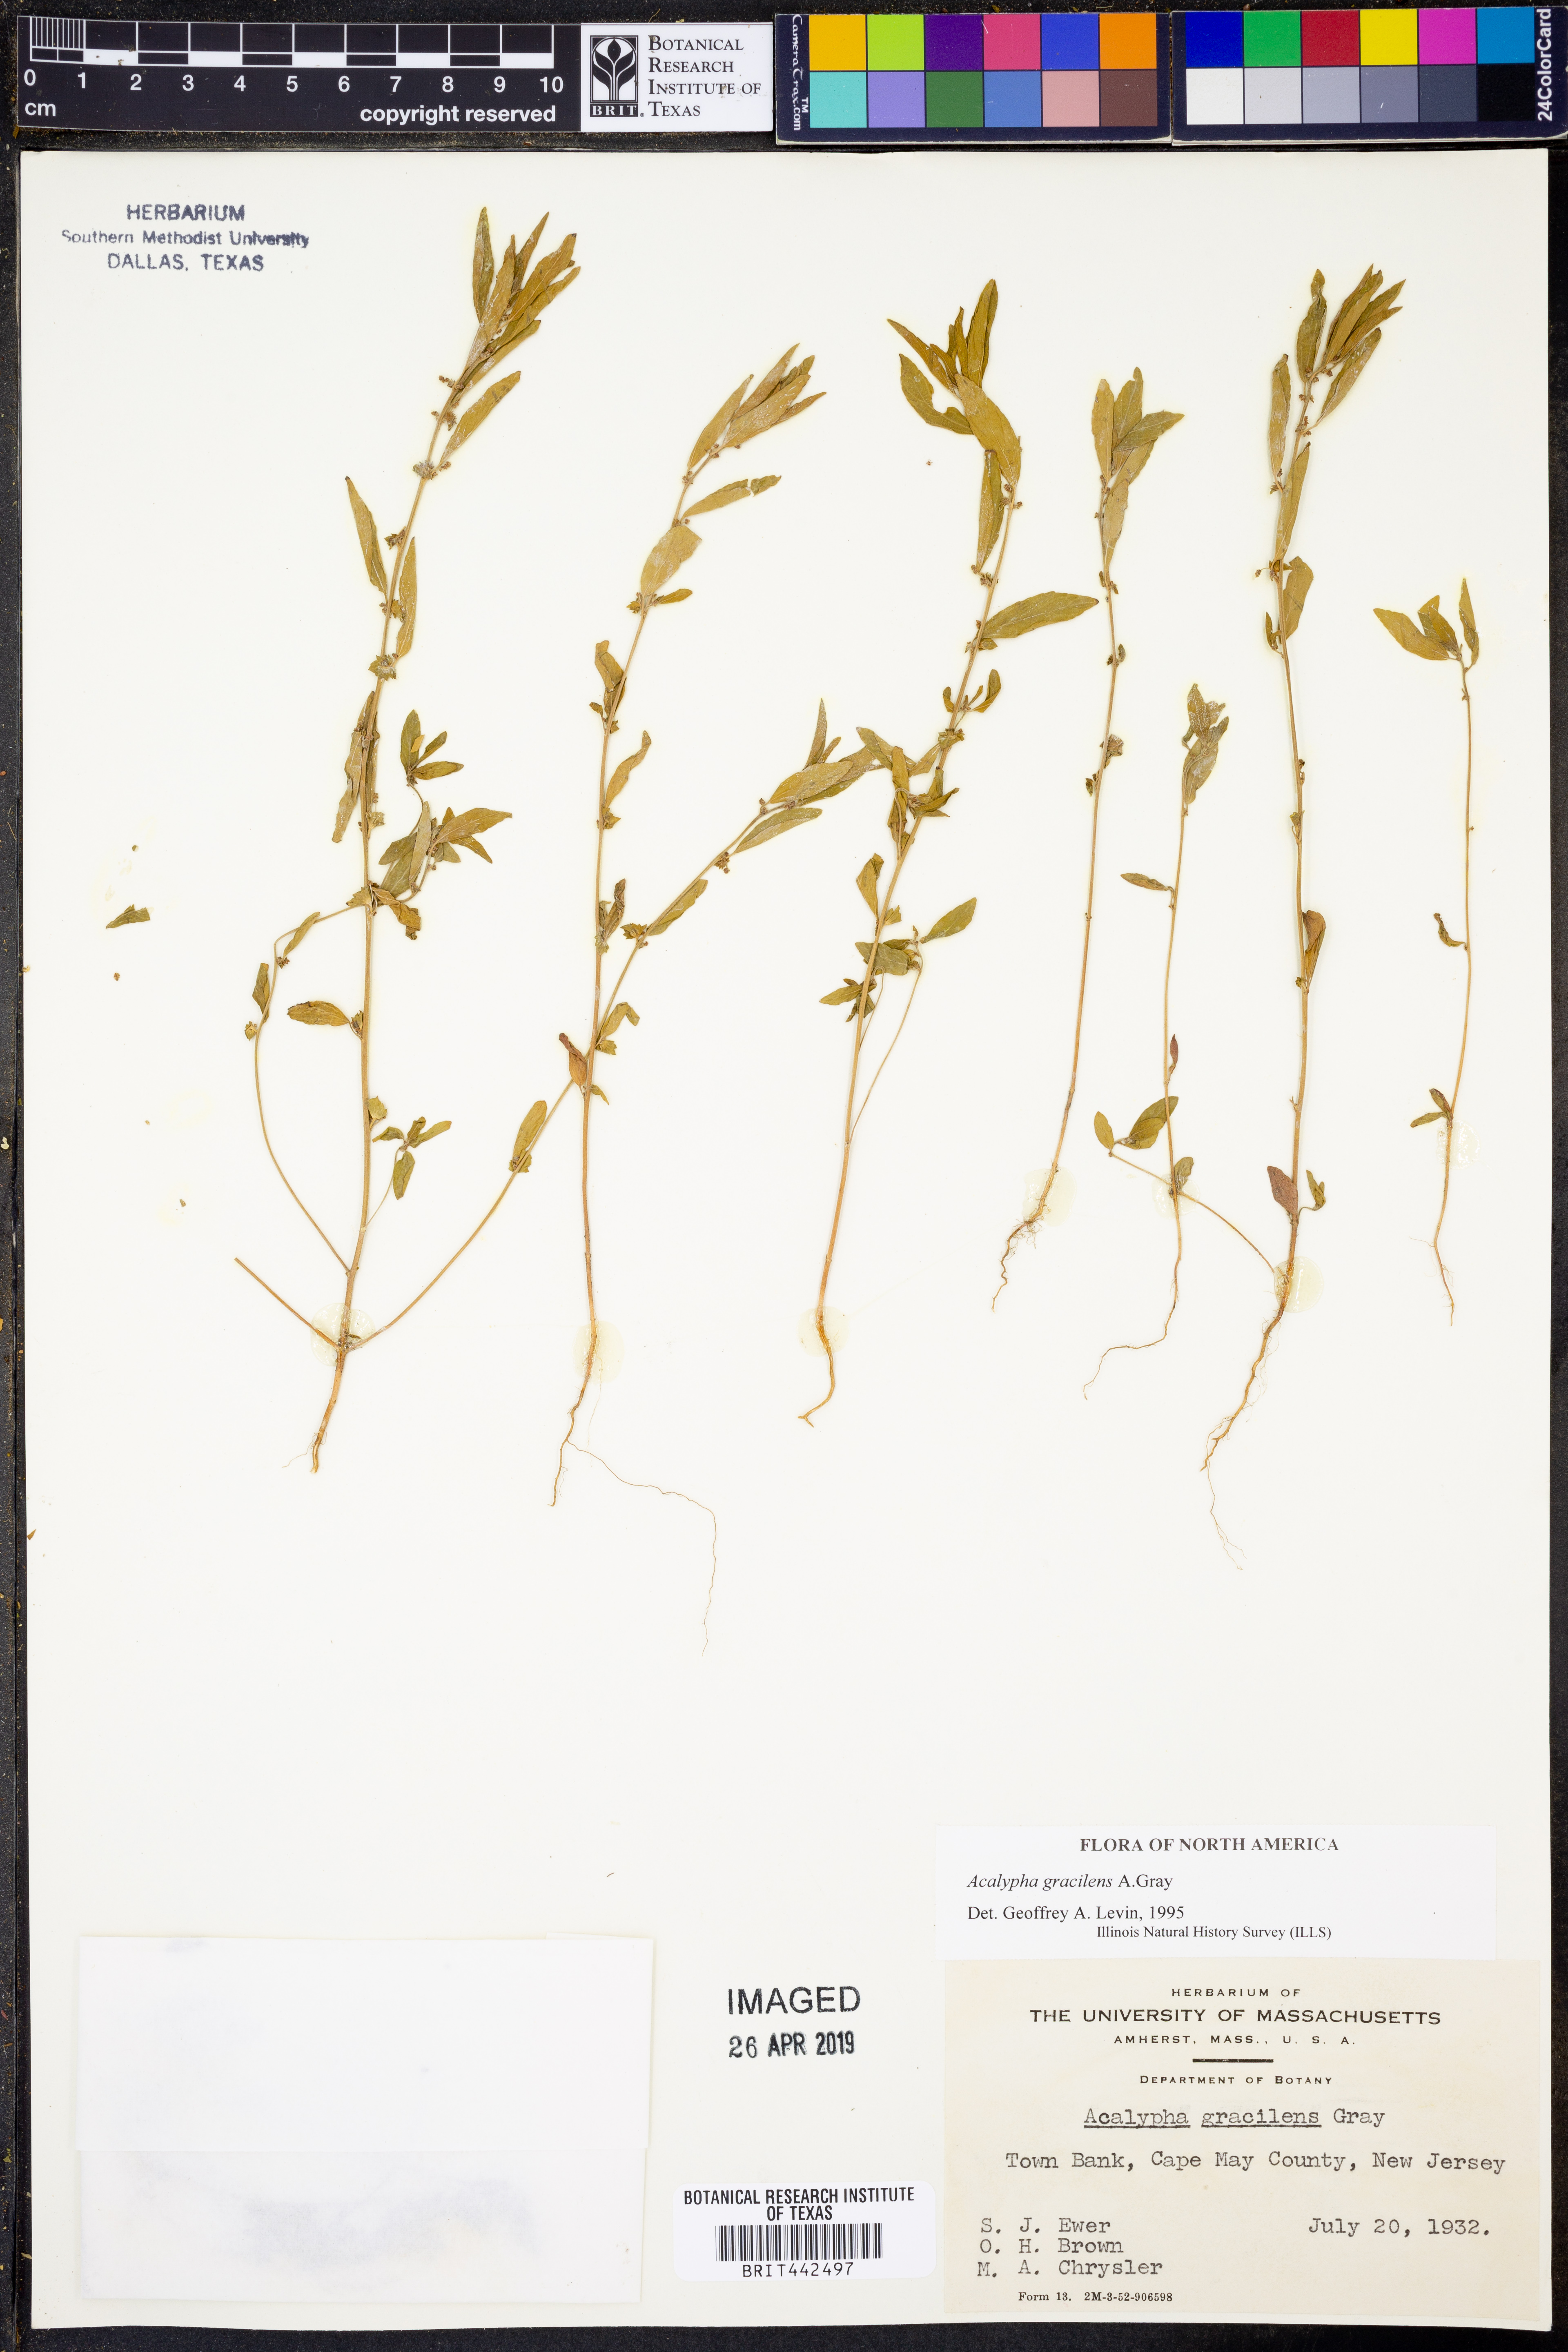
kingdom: Plantae
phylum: Tracheophyta
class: Magnoliopsida
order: Malpighiales
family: Euphorbiaceae
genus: Acalypha
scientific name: Acalypha gracilens
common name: Slender three-seeded mercury
